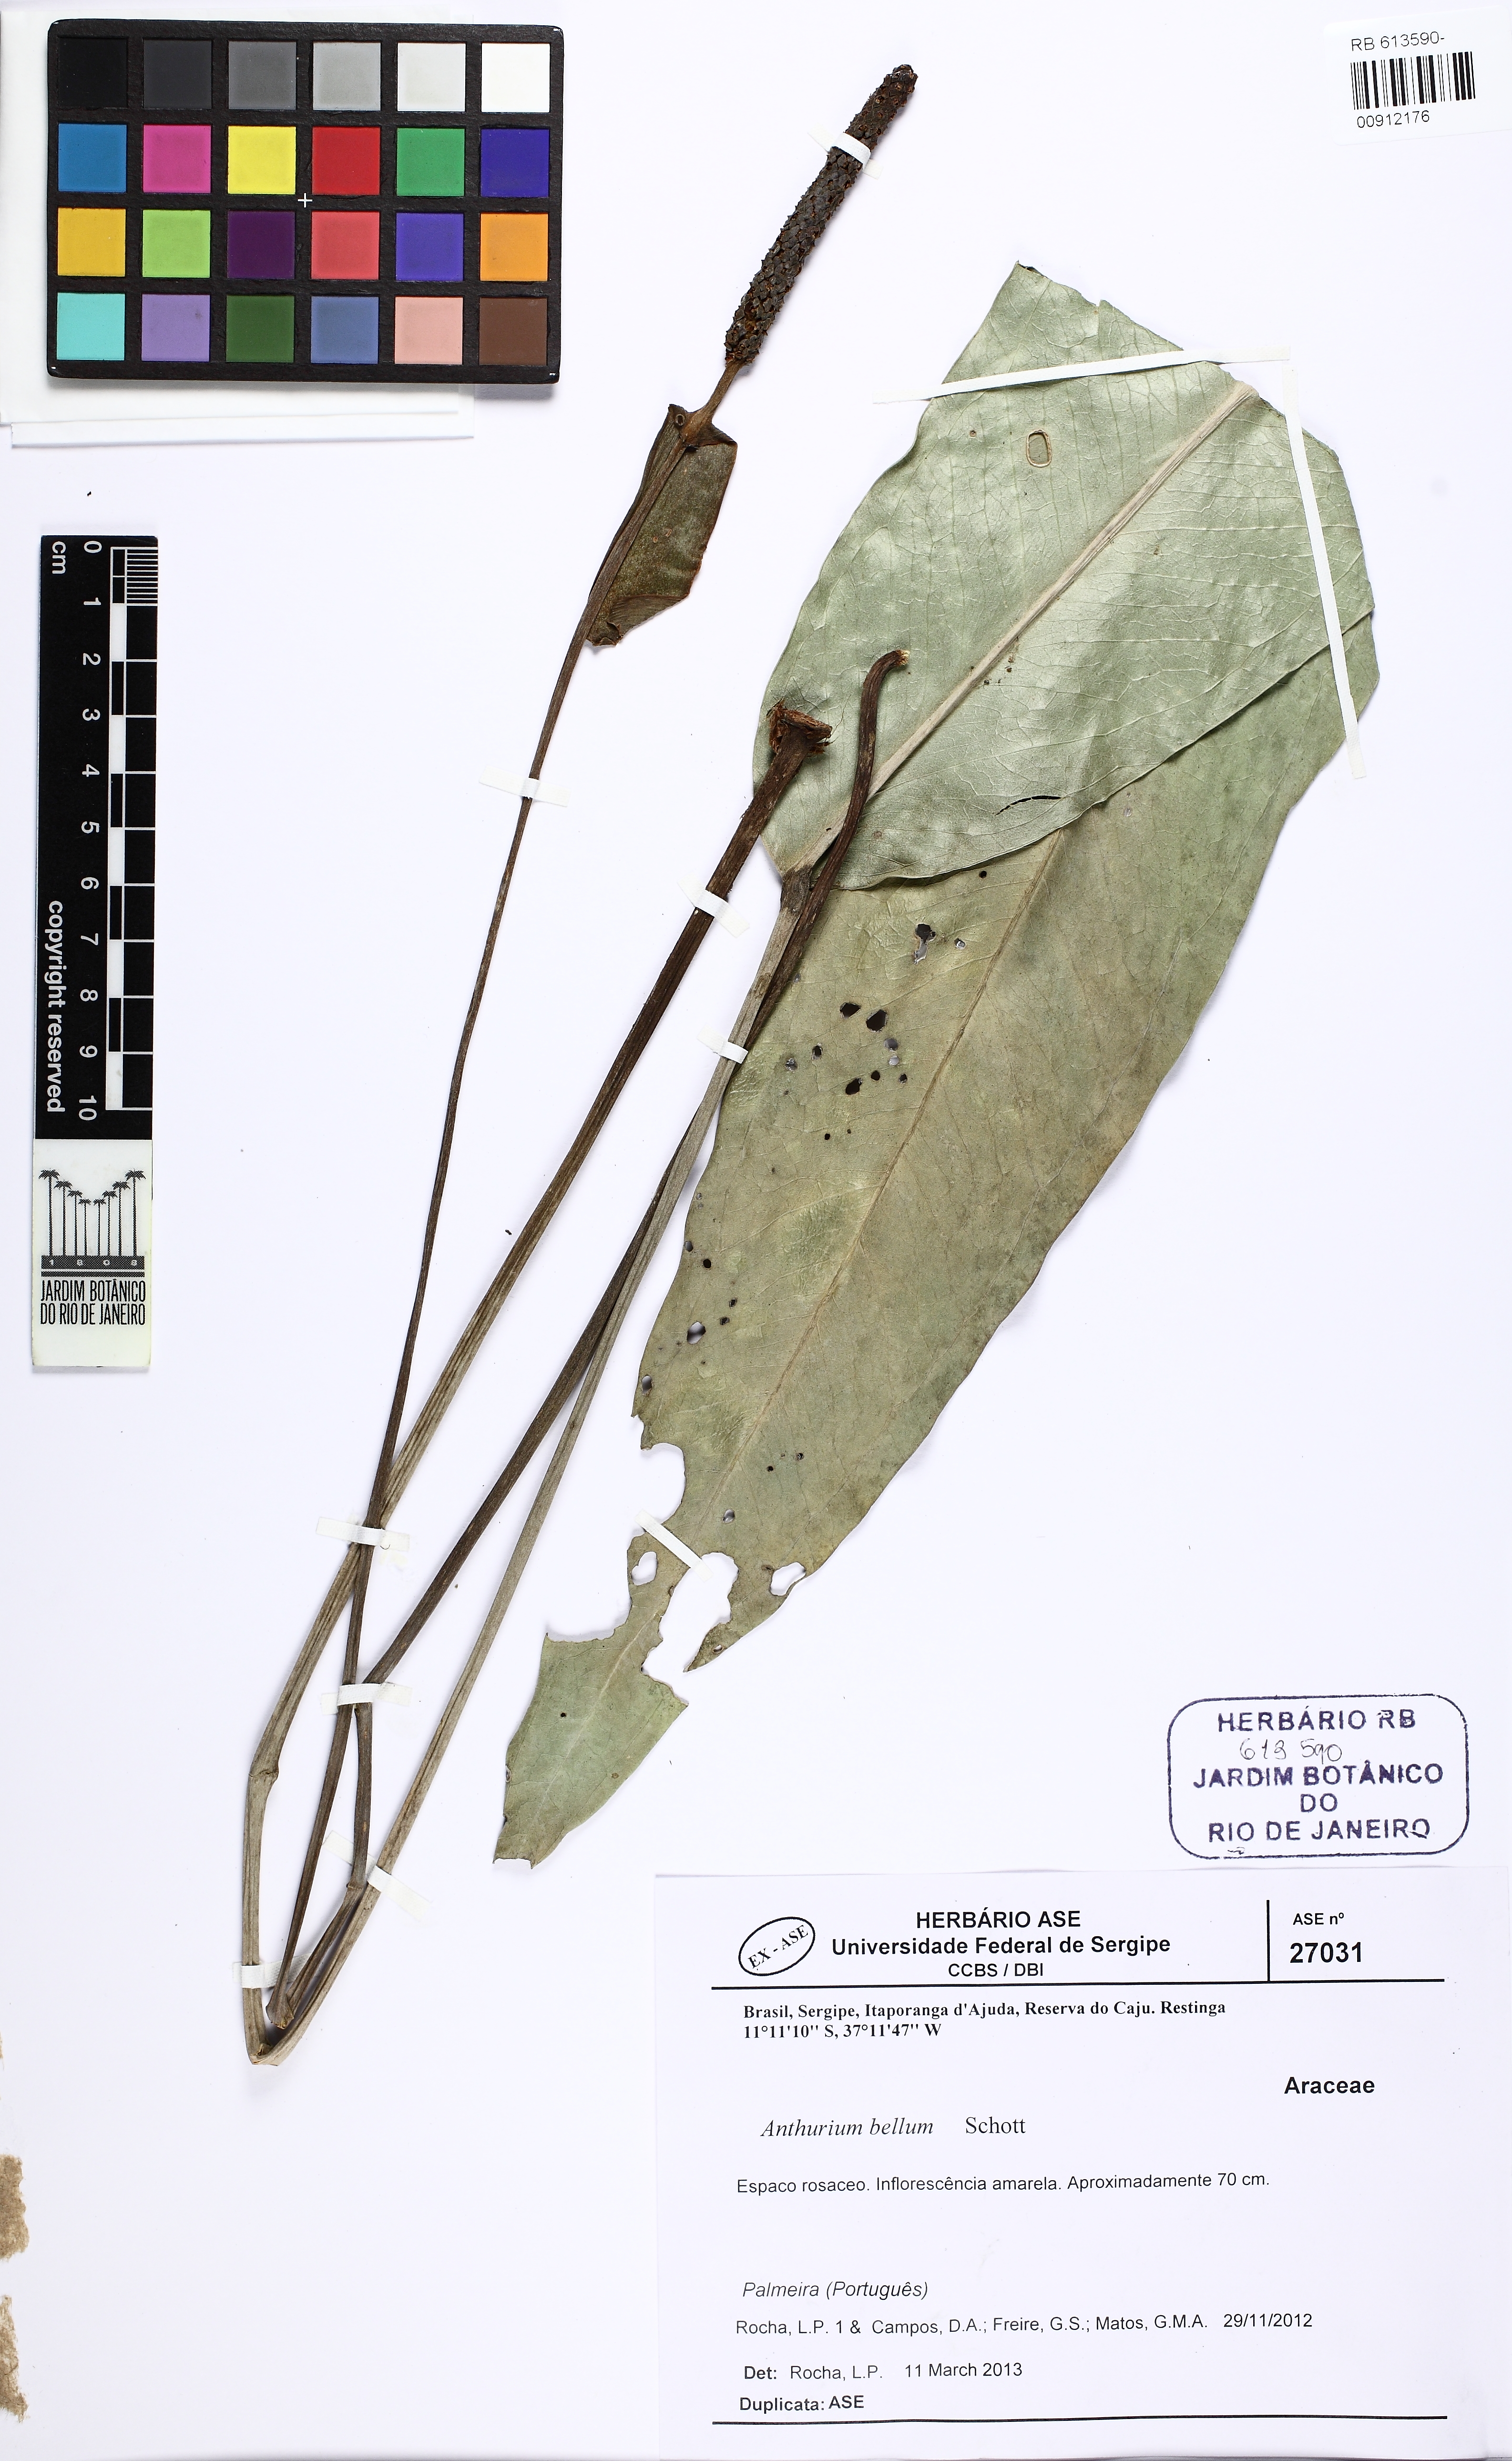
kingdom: Plantae
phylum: Tracheophyta
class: Liliopsida
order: Alismatales
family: Araceae
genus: Anthurium
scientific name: Anthurium longipes
